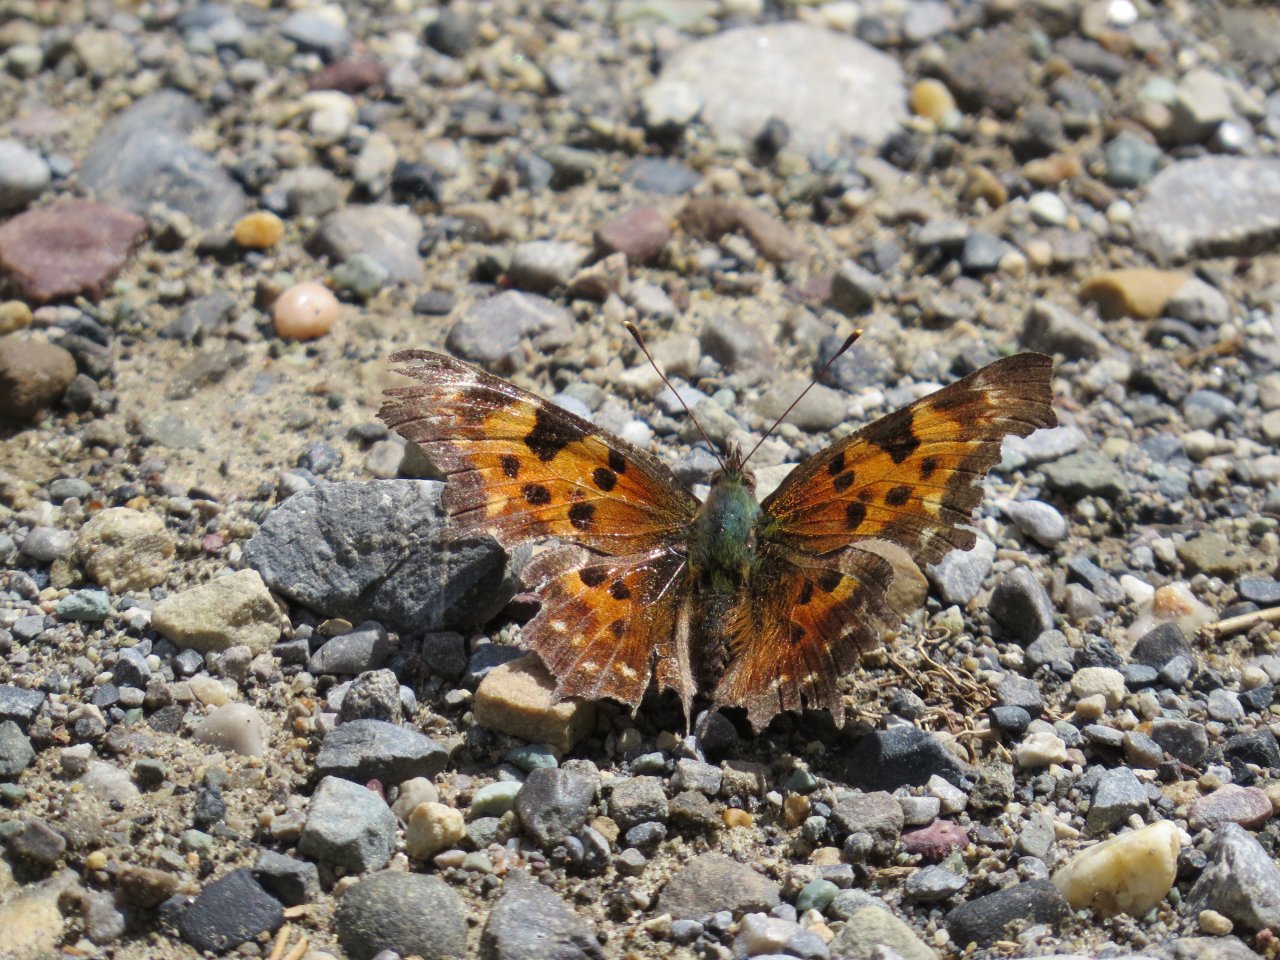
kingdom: Animalia
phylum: Arthropoda
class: Insecta
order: Lepidoptera
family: Nymphalidae
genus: Polygonia
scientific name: Polygonia faunus
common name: Green Comma
